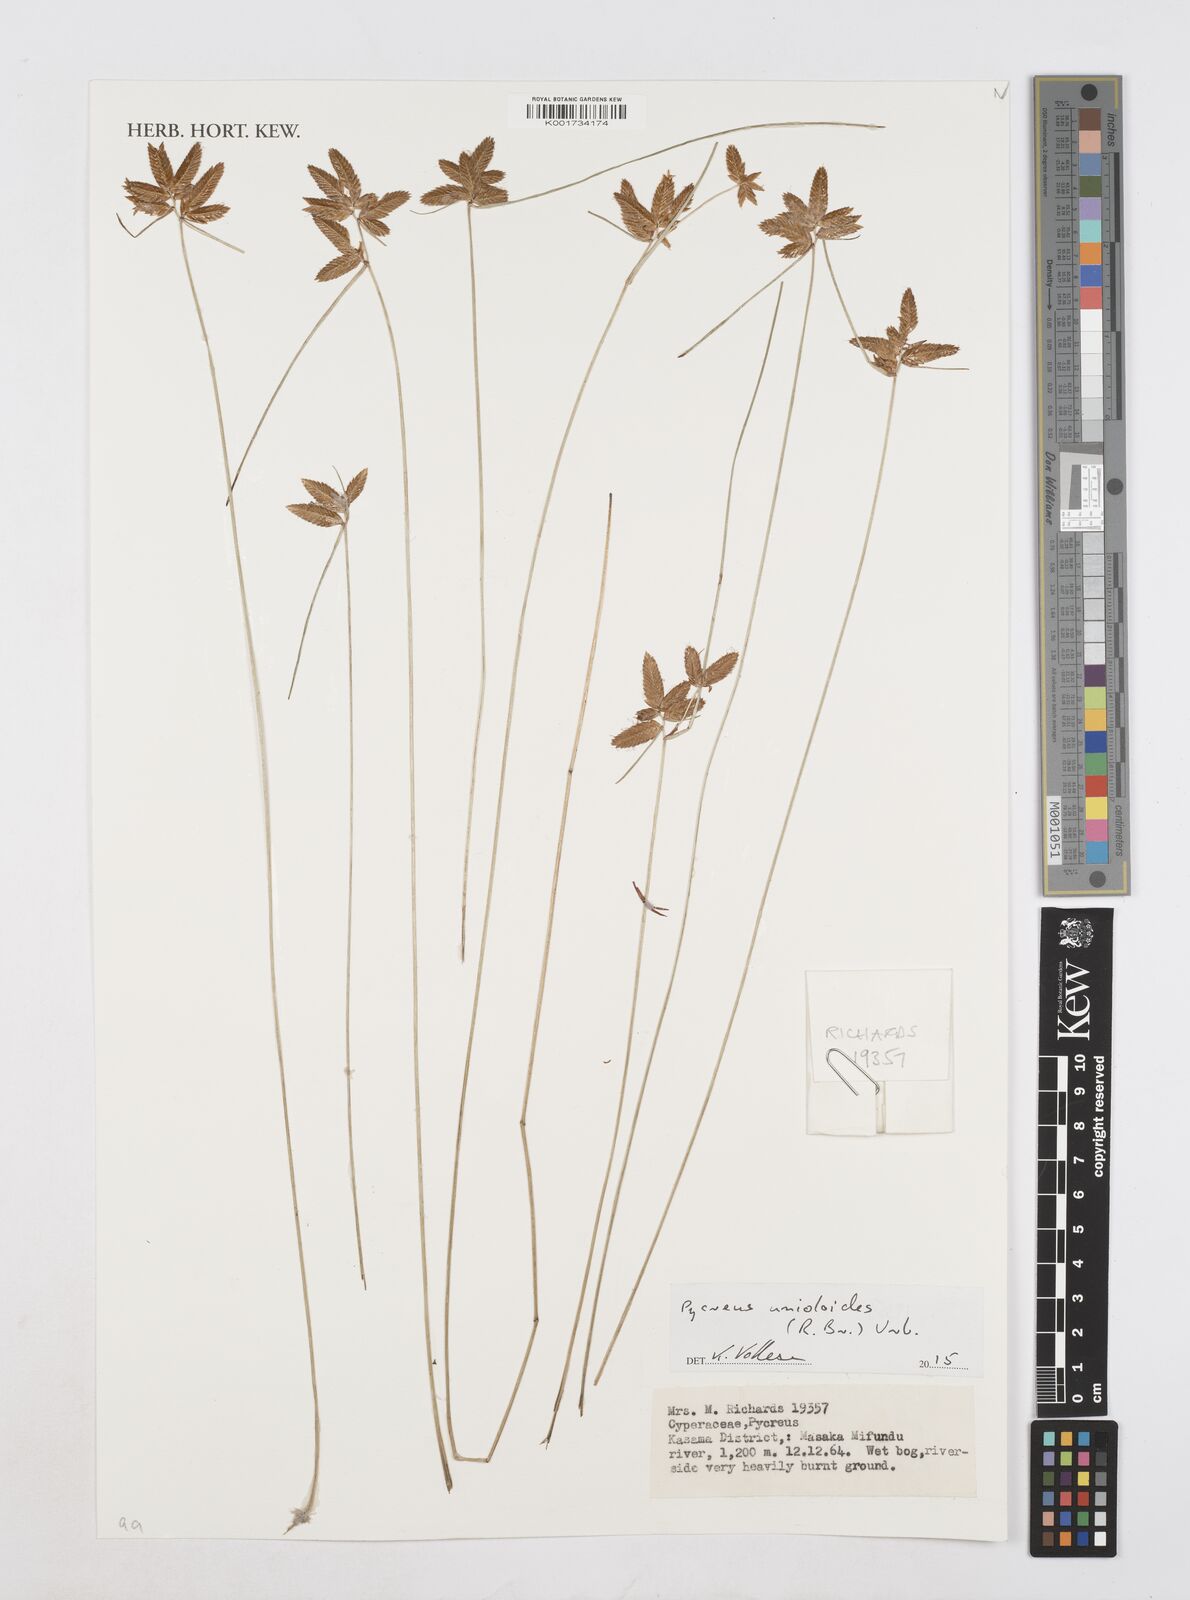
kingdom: Plantae
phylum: Tracheophyta
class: Liliopsida
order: Poales
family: Cyperaceae
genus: Cyperus
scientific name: Cyperus nigricans
